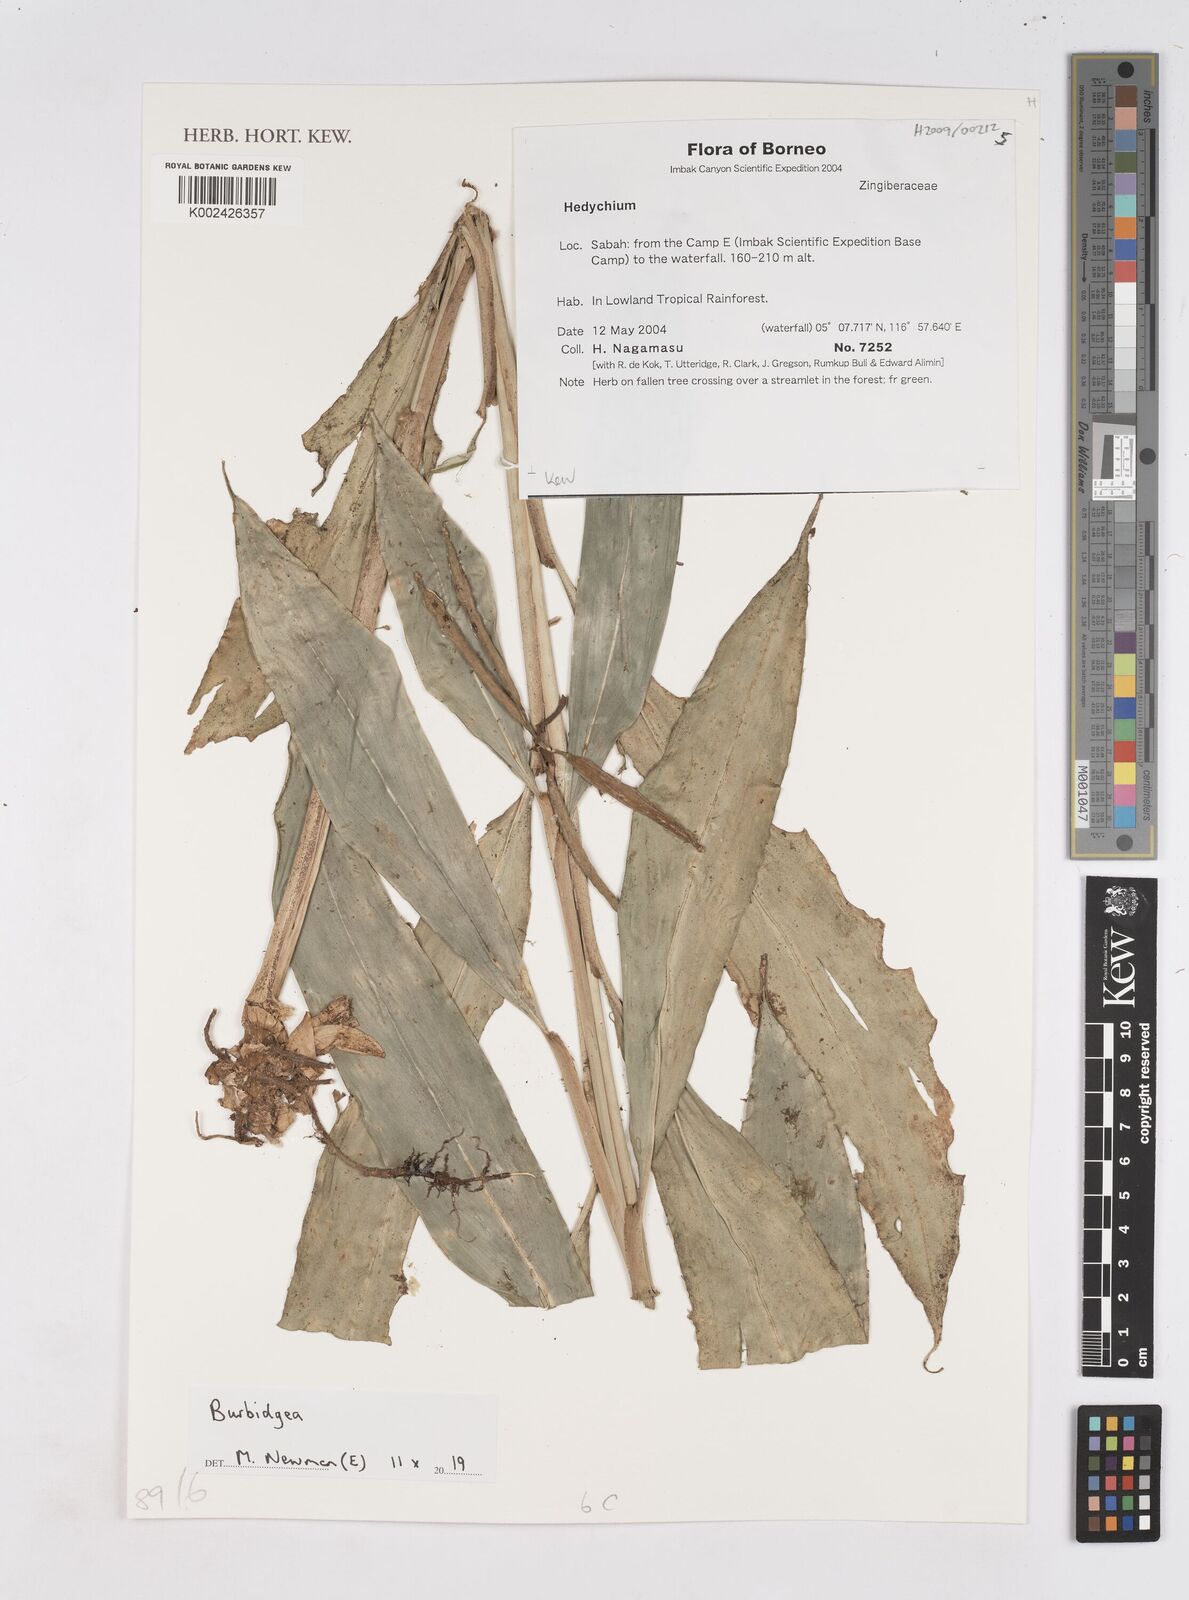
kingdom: Plantae
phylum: Tracheophyta
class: Liliopsida
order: Zingiberales
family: Zingiberaceae
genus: Burbidgea
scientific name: Burbidgea
